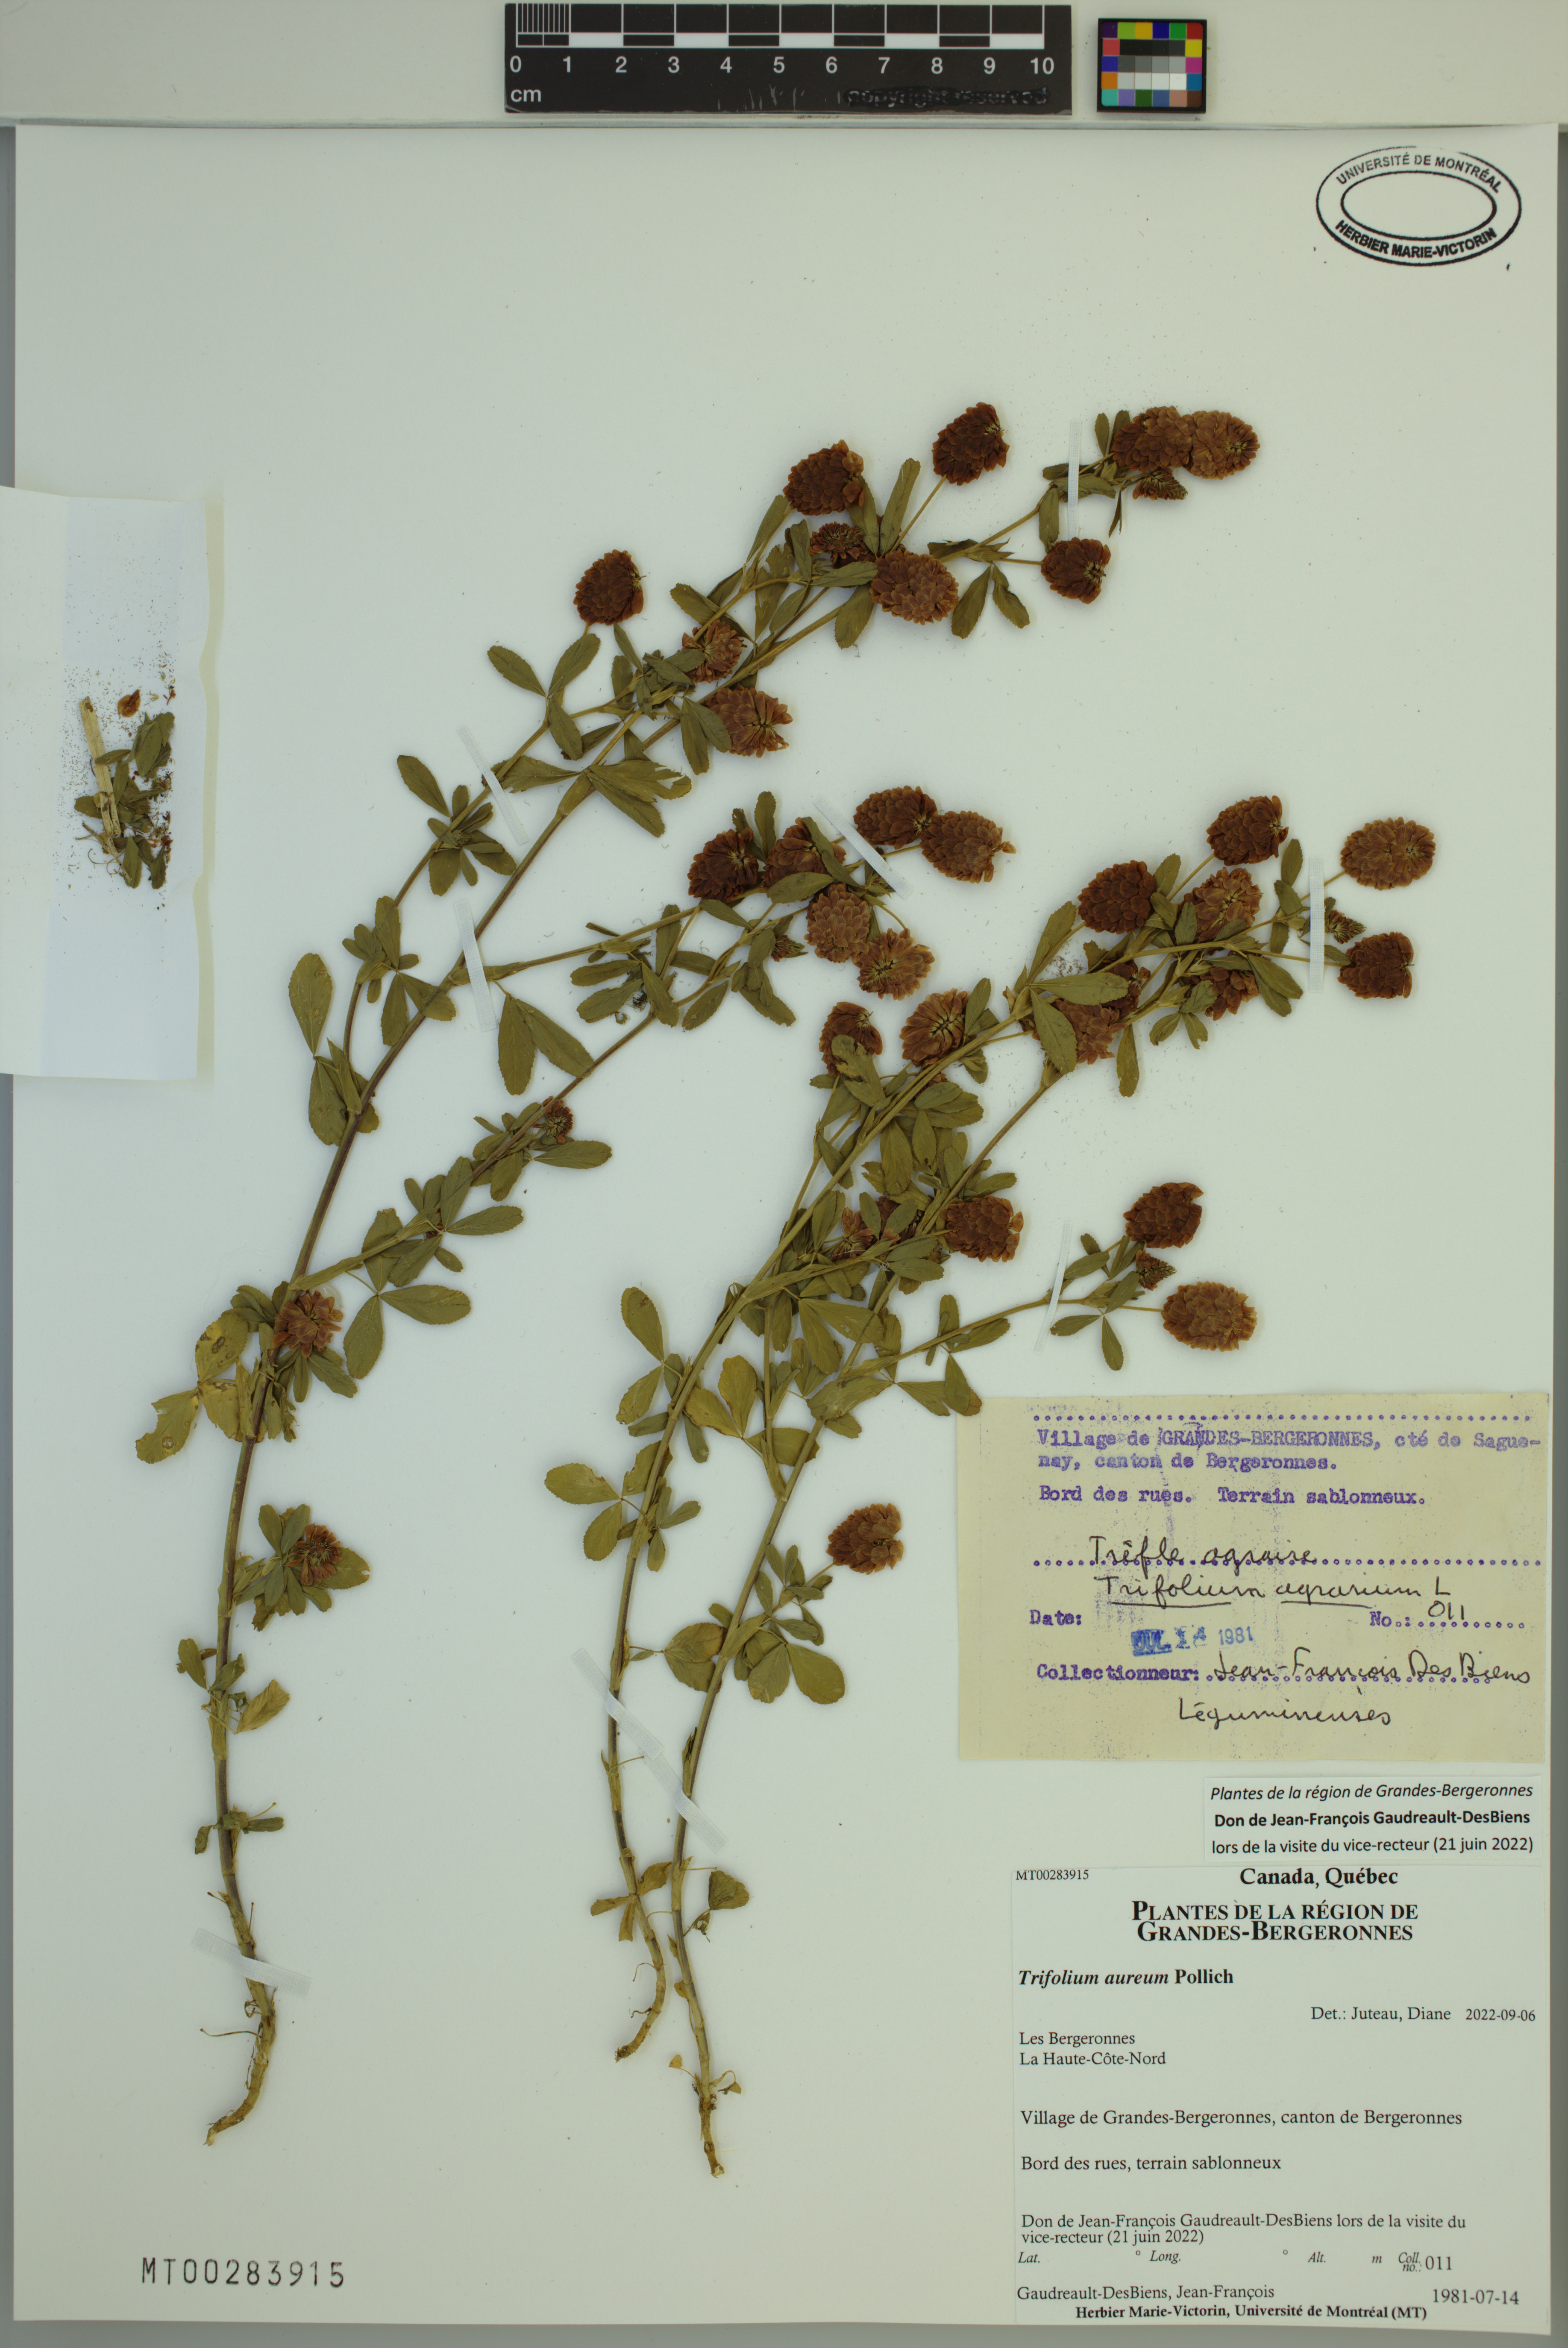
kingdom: Plantae
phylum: Tracheophyta
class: Magnoliopsida
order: Fabales
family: Fabaceae
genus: Trifolium
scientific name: Trifolium aureum
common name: Golden clover
